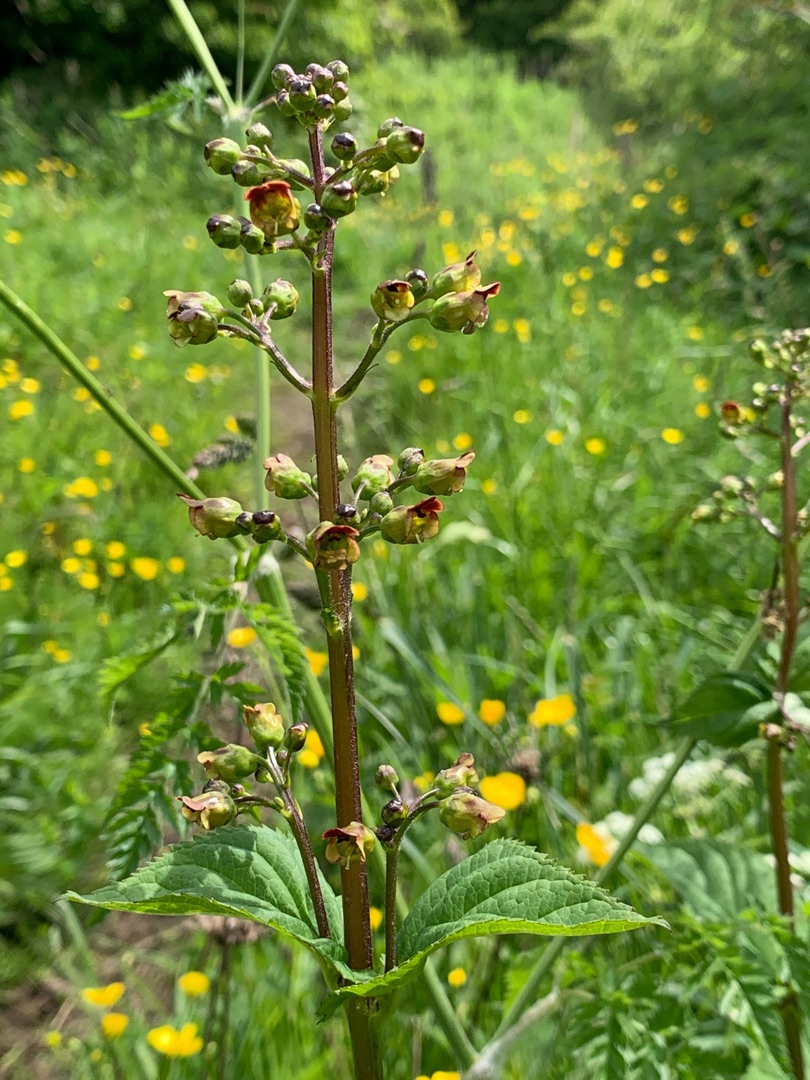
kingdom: Plantae
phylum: Tracheophyta
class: Magnoliopsida
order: Lamiales
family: Scrophulariaceae
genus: Scrophularia
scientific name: Scrophularia nodosa
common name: Knoldet brunrod
